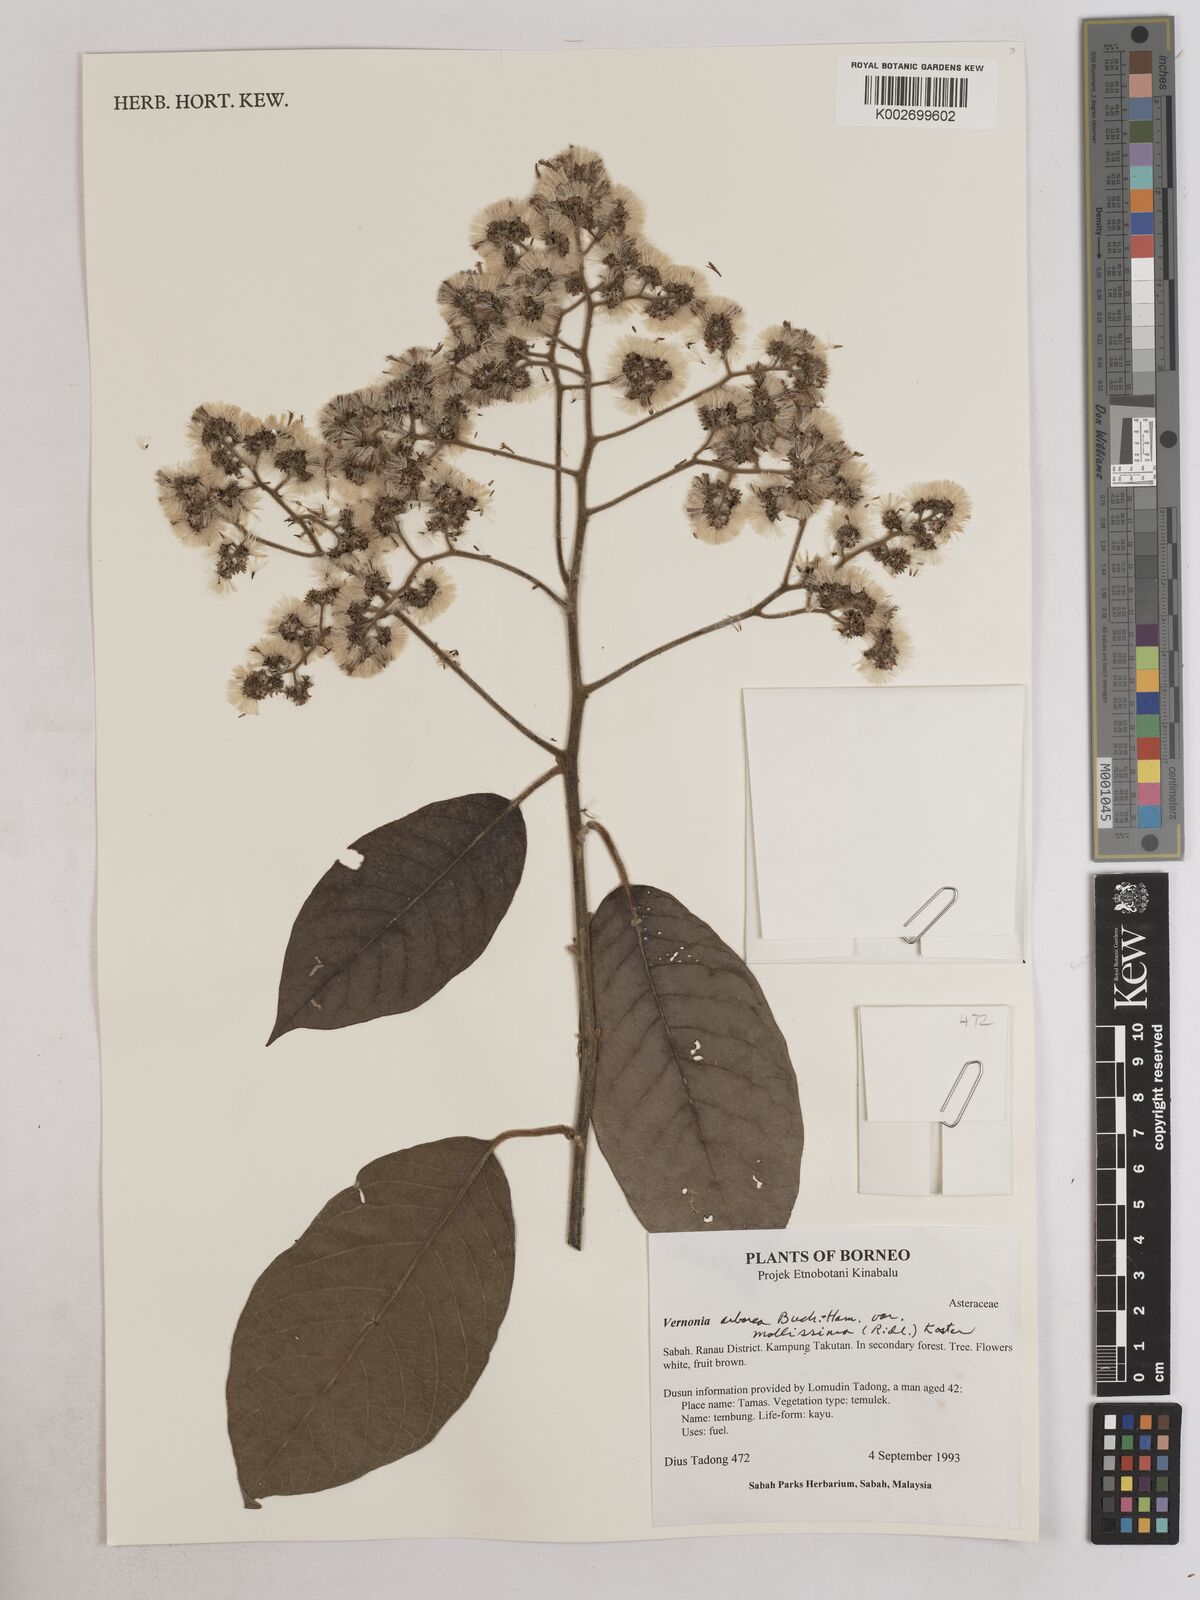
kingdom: Plantae
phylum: Tracheophyta
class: Magnoliopsida
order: Asterales
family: Asteraceae
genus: Strobocalyx
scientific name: Strobocalyx arborea
